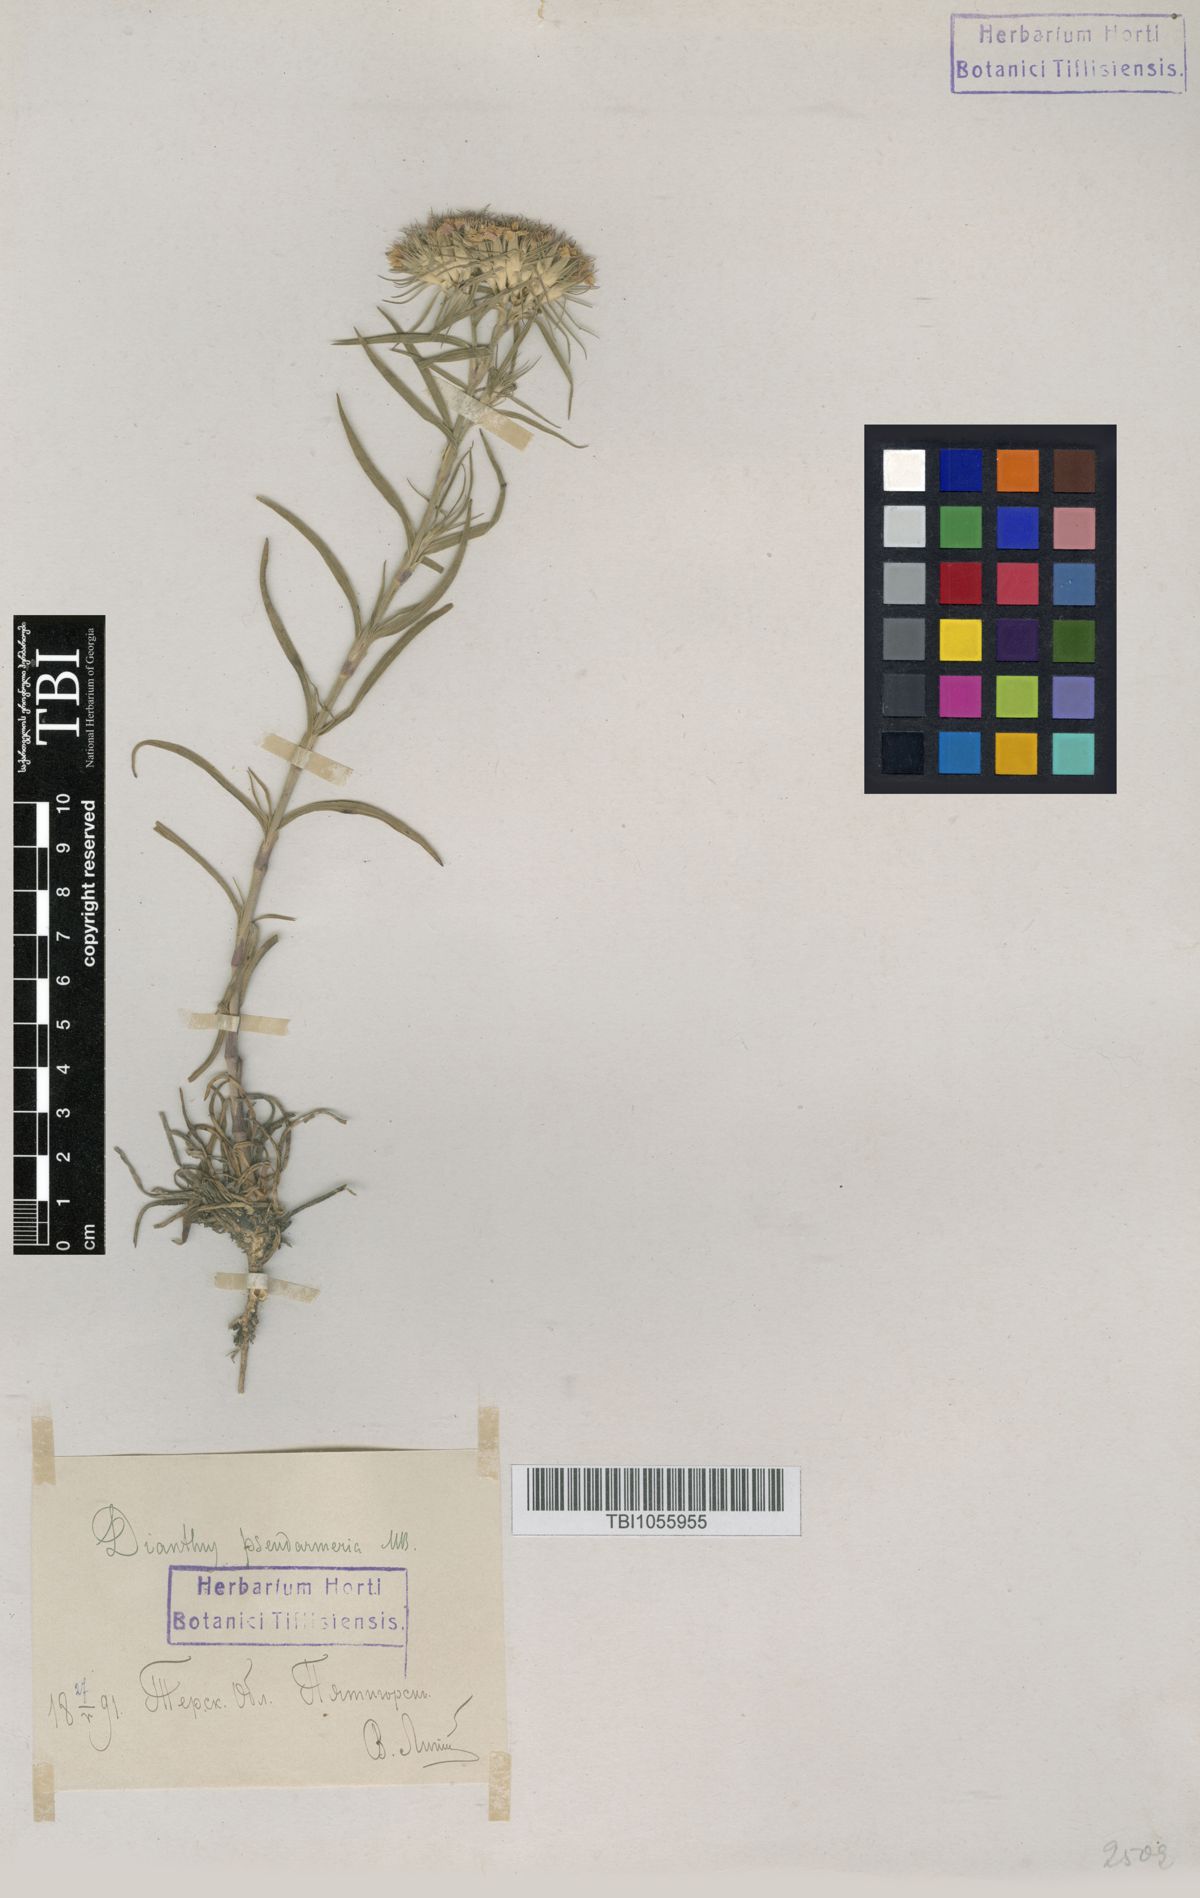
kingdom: Plantae
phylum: Tracheophyta
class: Magnoliopsida
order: Caryophyllales
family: Caryophyllaceae
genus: Dianthus
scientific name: Dianthus pseudarmeria
